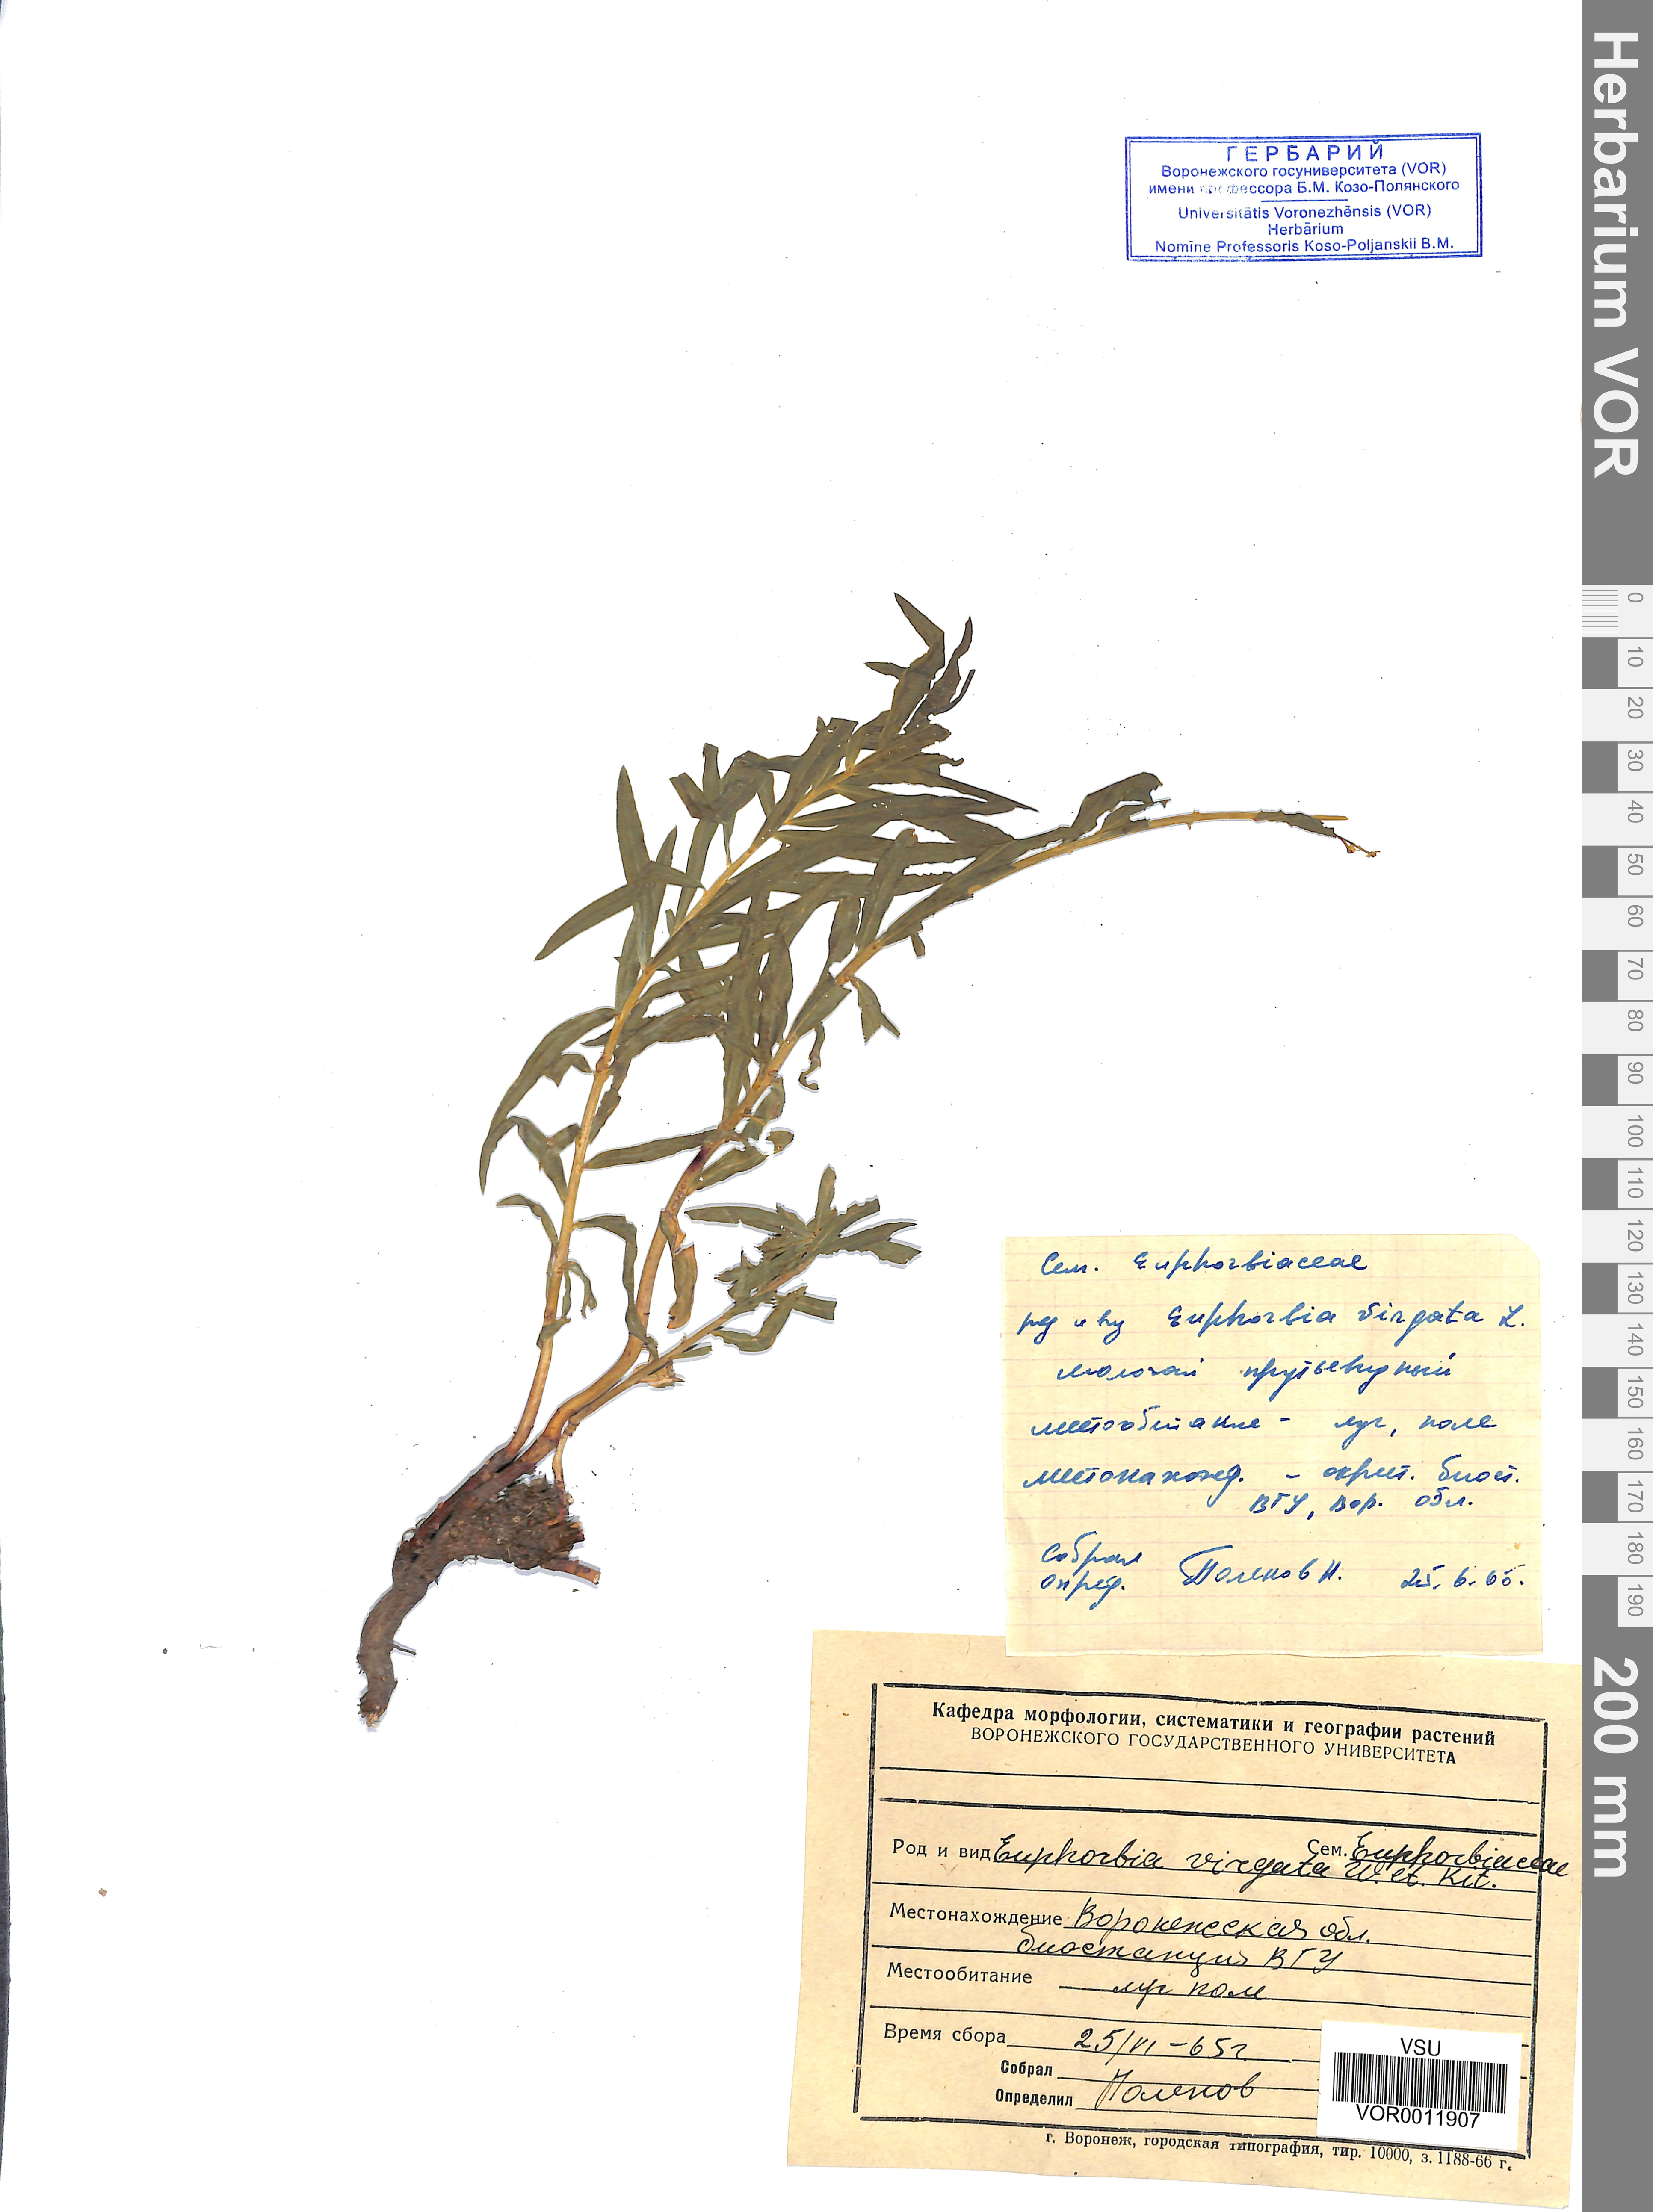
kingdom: Plantae
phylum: Tracheophyta
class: Magnoliopsida
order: Malpighiales
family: Euphorbiaceae
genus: Euphorbia
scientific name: Euphorbia virgata
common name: Leafy spurge
